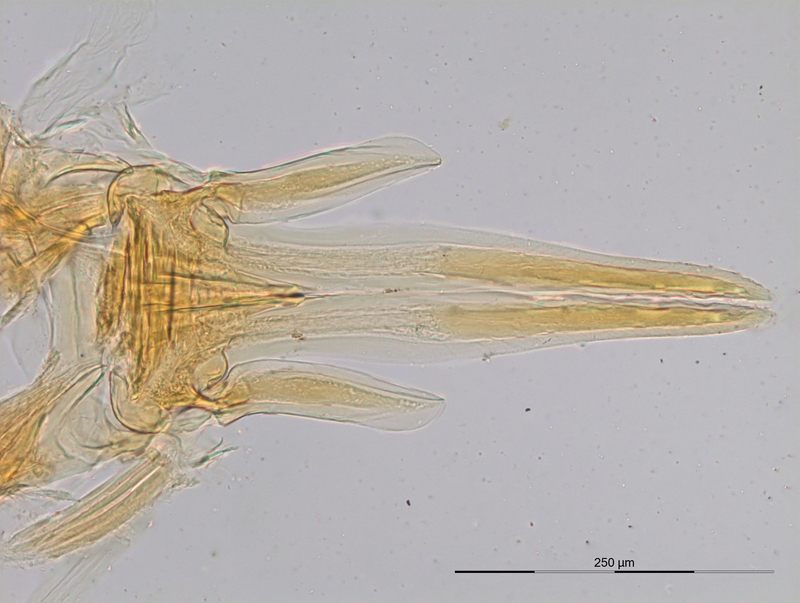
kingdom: Animalia
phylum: Arthropoda
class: Diplopoda
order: Julida
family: Blaniulidae
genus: Nopoiulus
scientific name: Nopoiulus kochii
